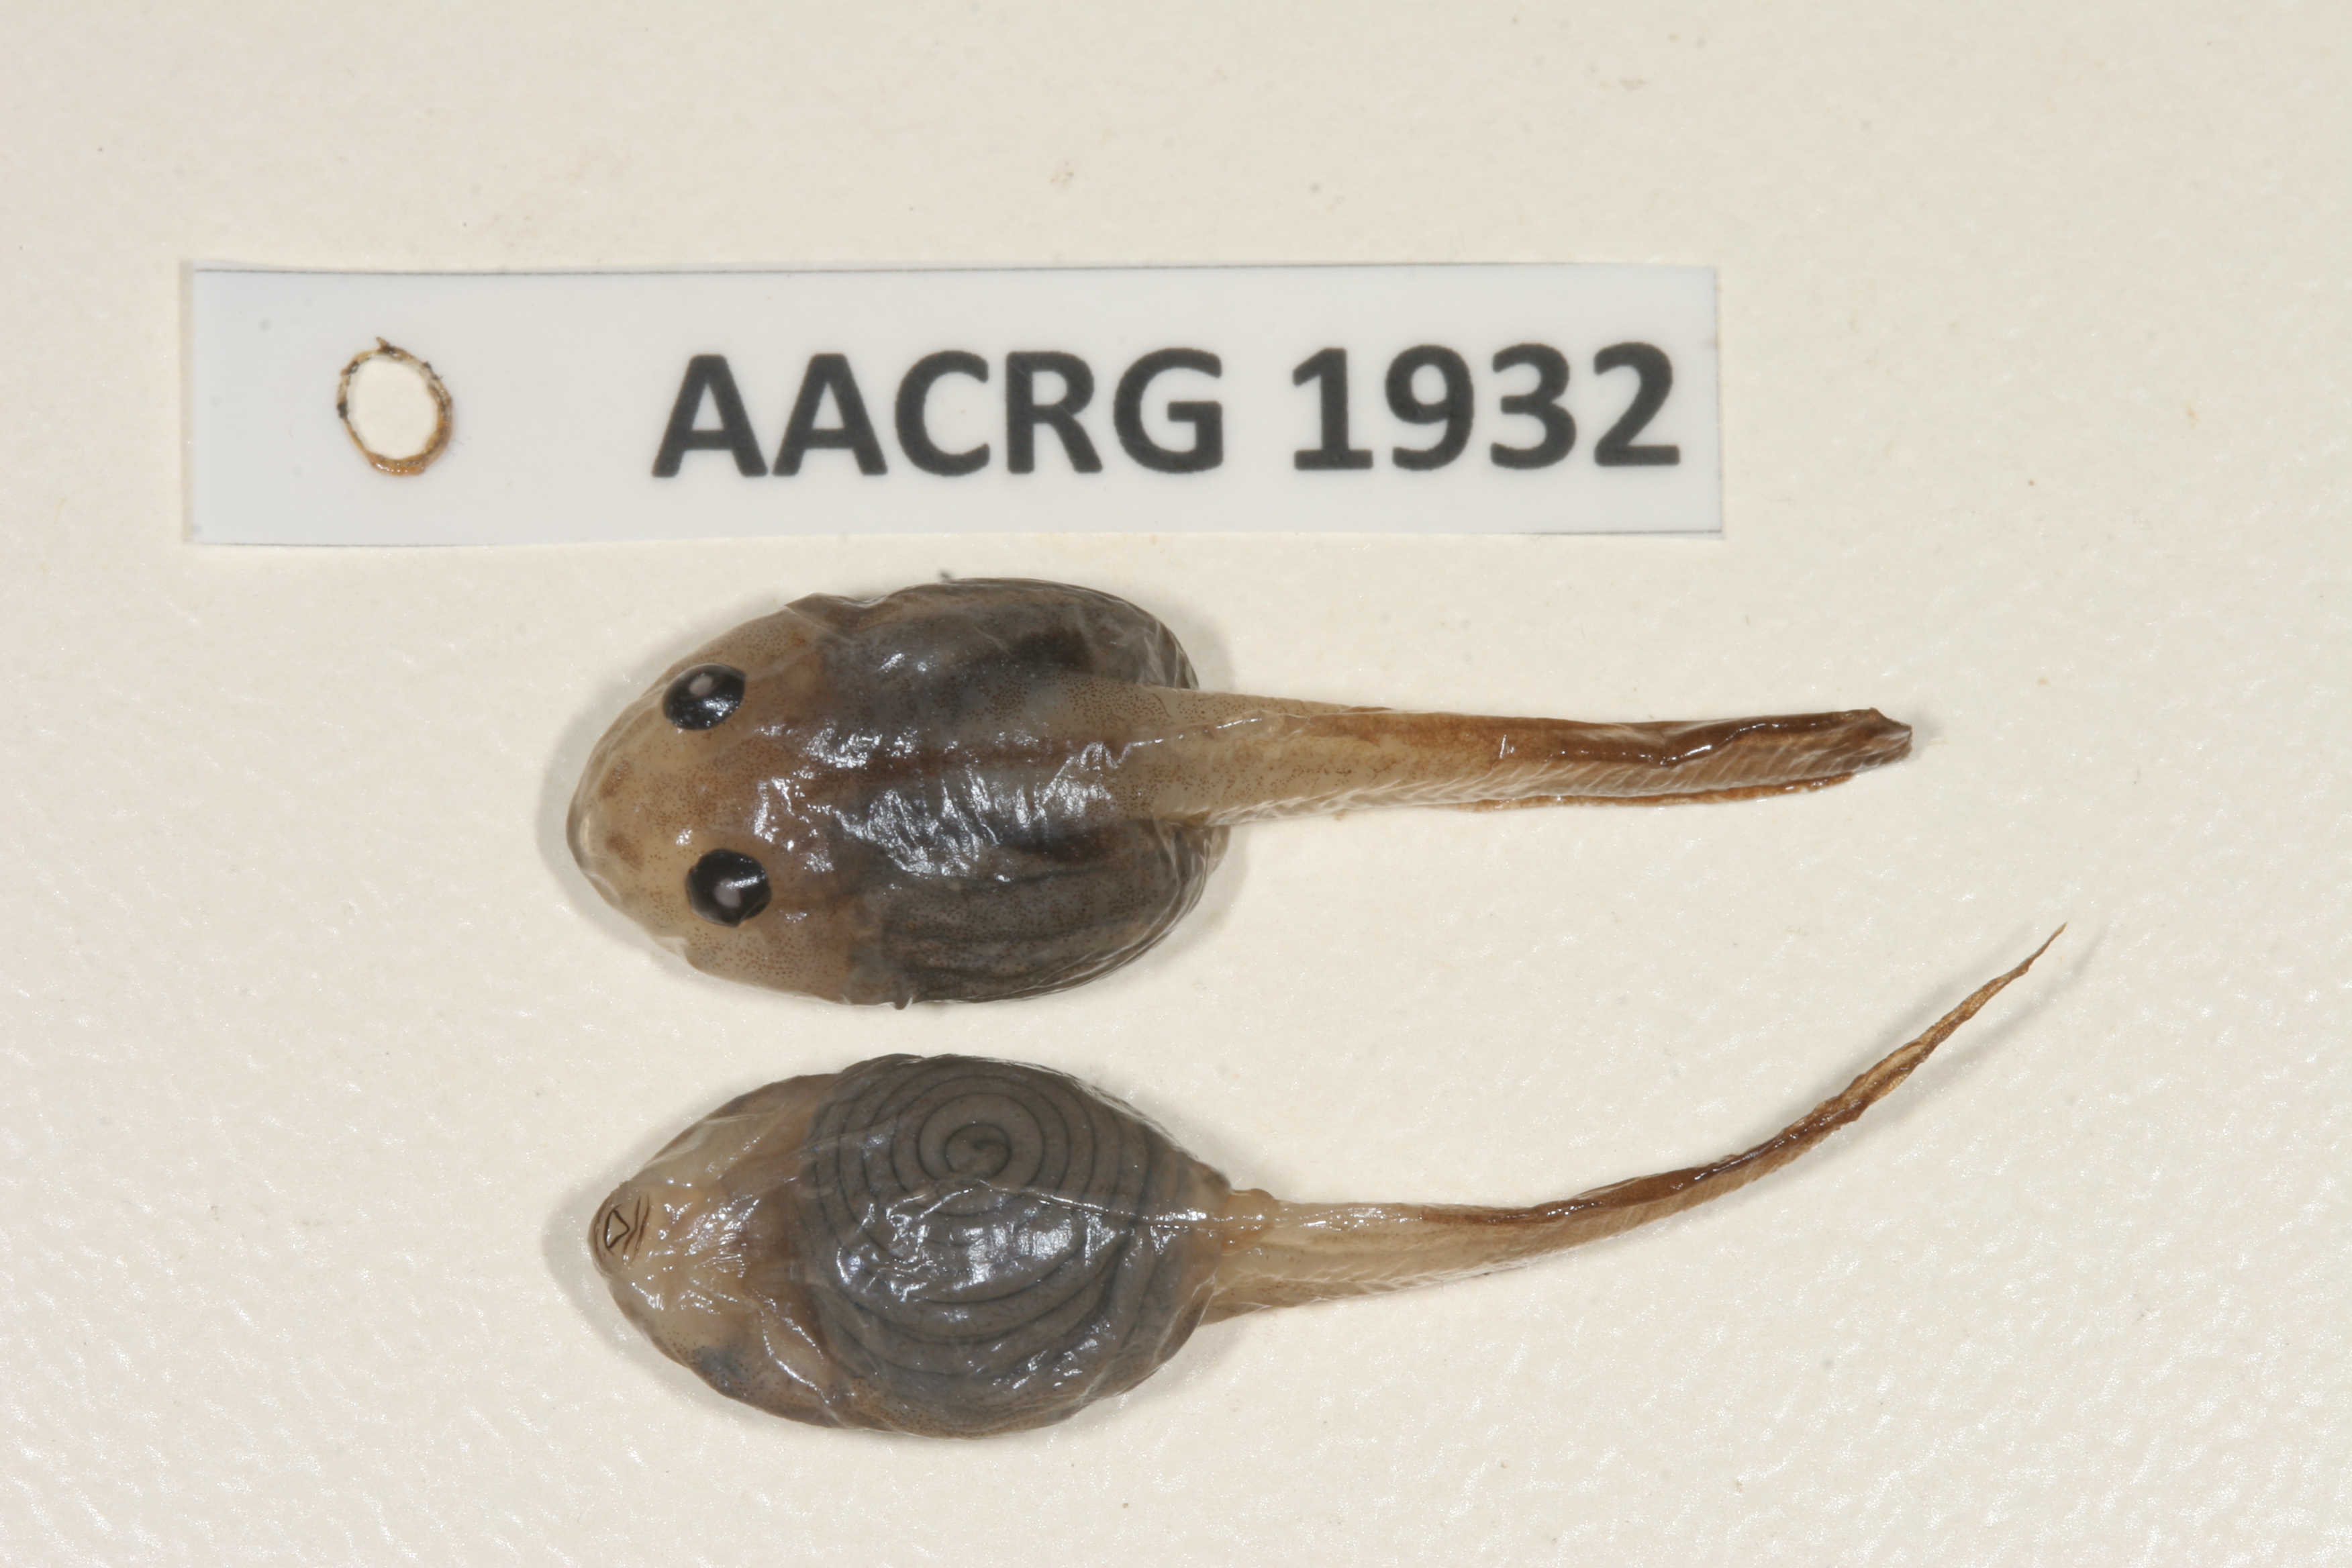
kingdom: Animalia
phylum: Chordata
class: Amphibia
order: Anura
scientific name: Anura
